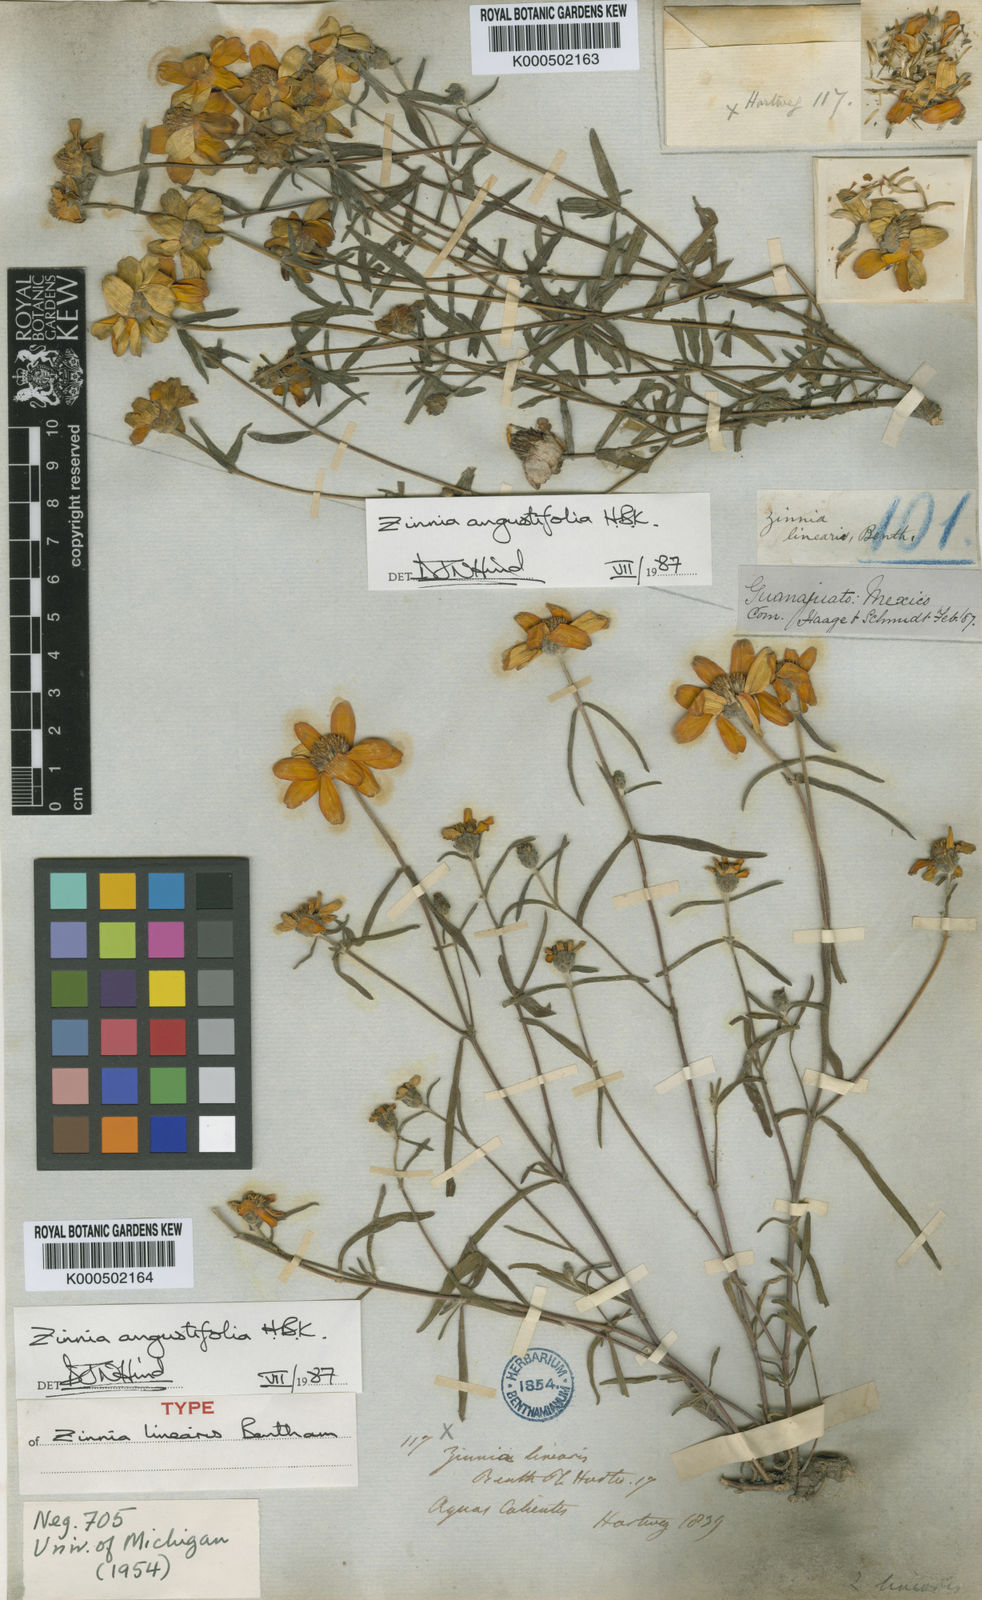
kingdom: Plantae
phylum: Tracheophyta
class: Magnoliopsida
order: Asterales
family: Asteraceae
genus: Zinnia
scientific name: Zinnia angustifolia
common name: Narrowleaf zinnia
